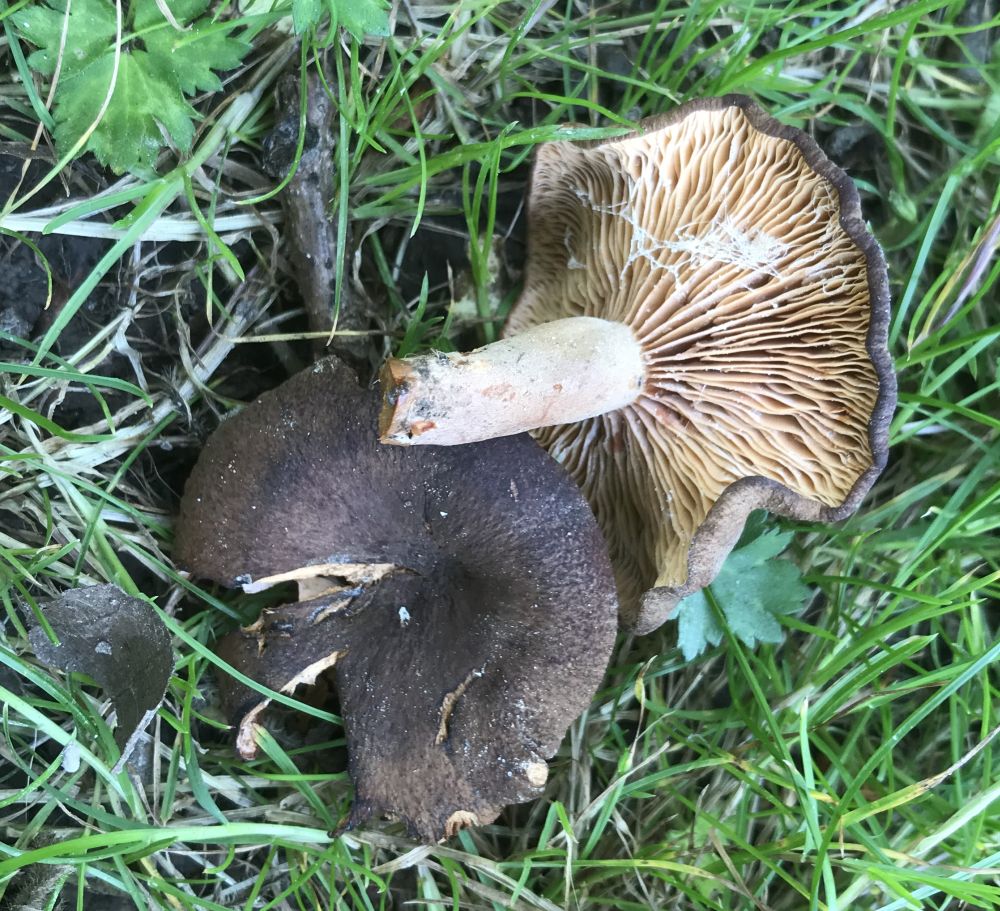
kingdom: Fungi
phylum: Basidiomycota
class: Agaricomycetes
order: Russulales
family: Russulaceae
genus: Lactarius
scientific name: Lactarius serifluus
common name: tæge-mælkehat
